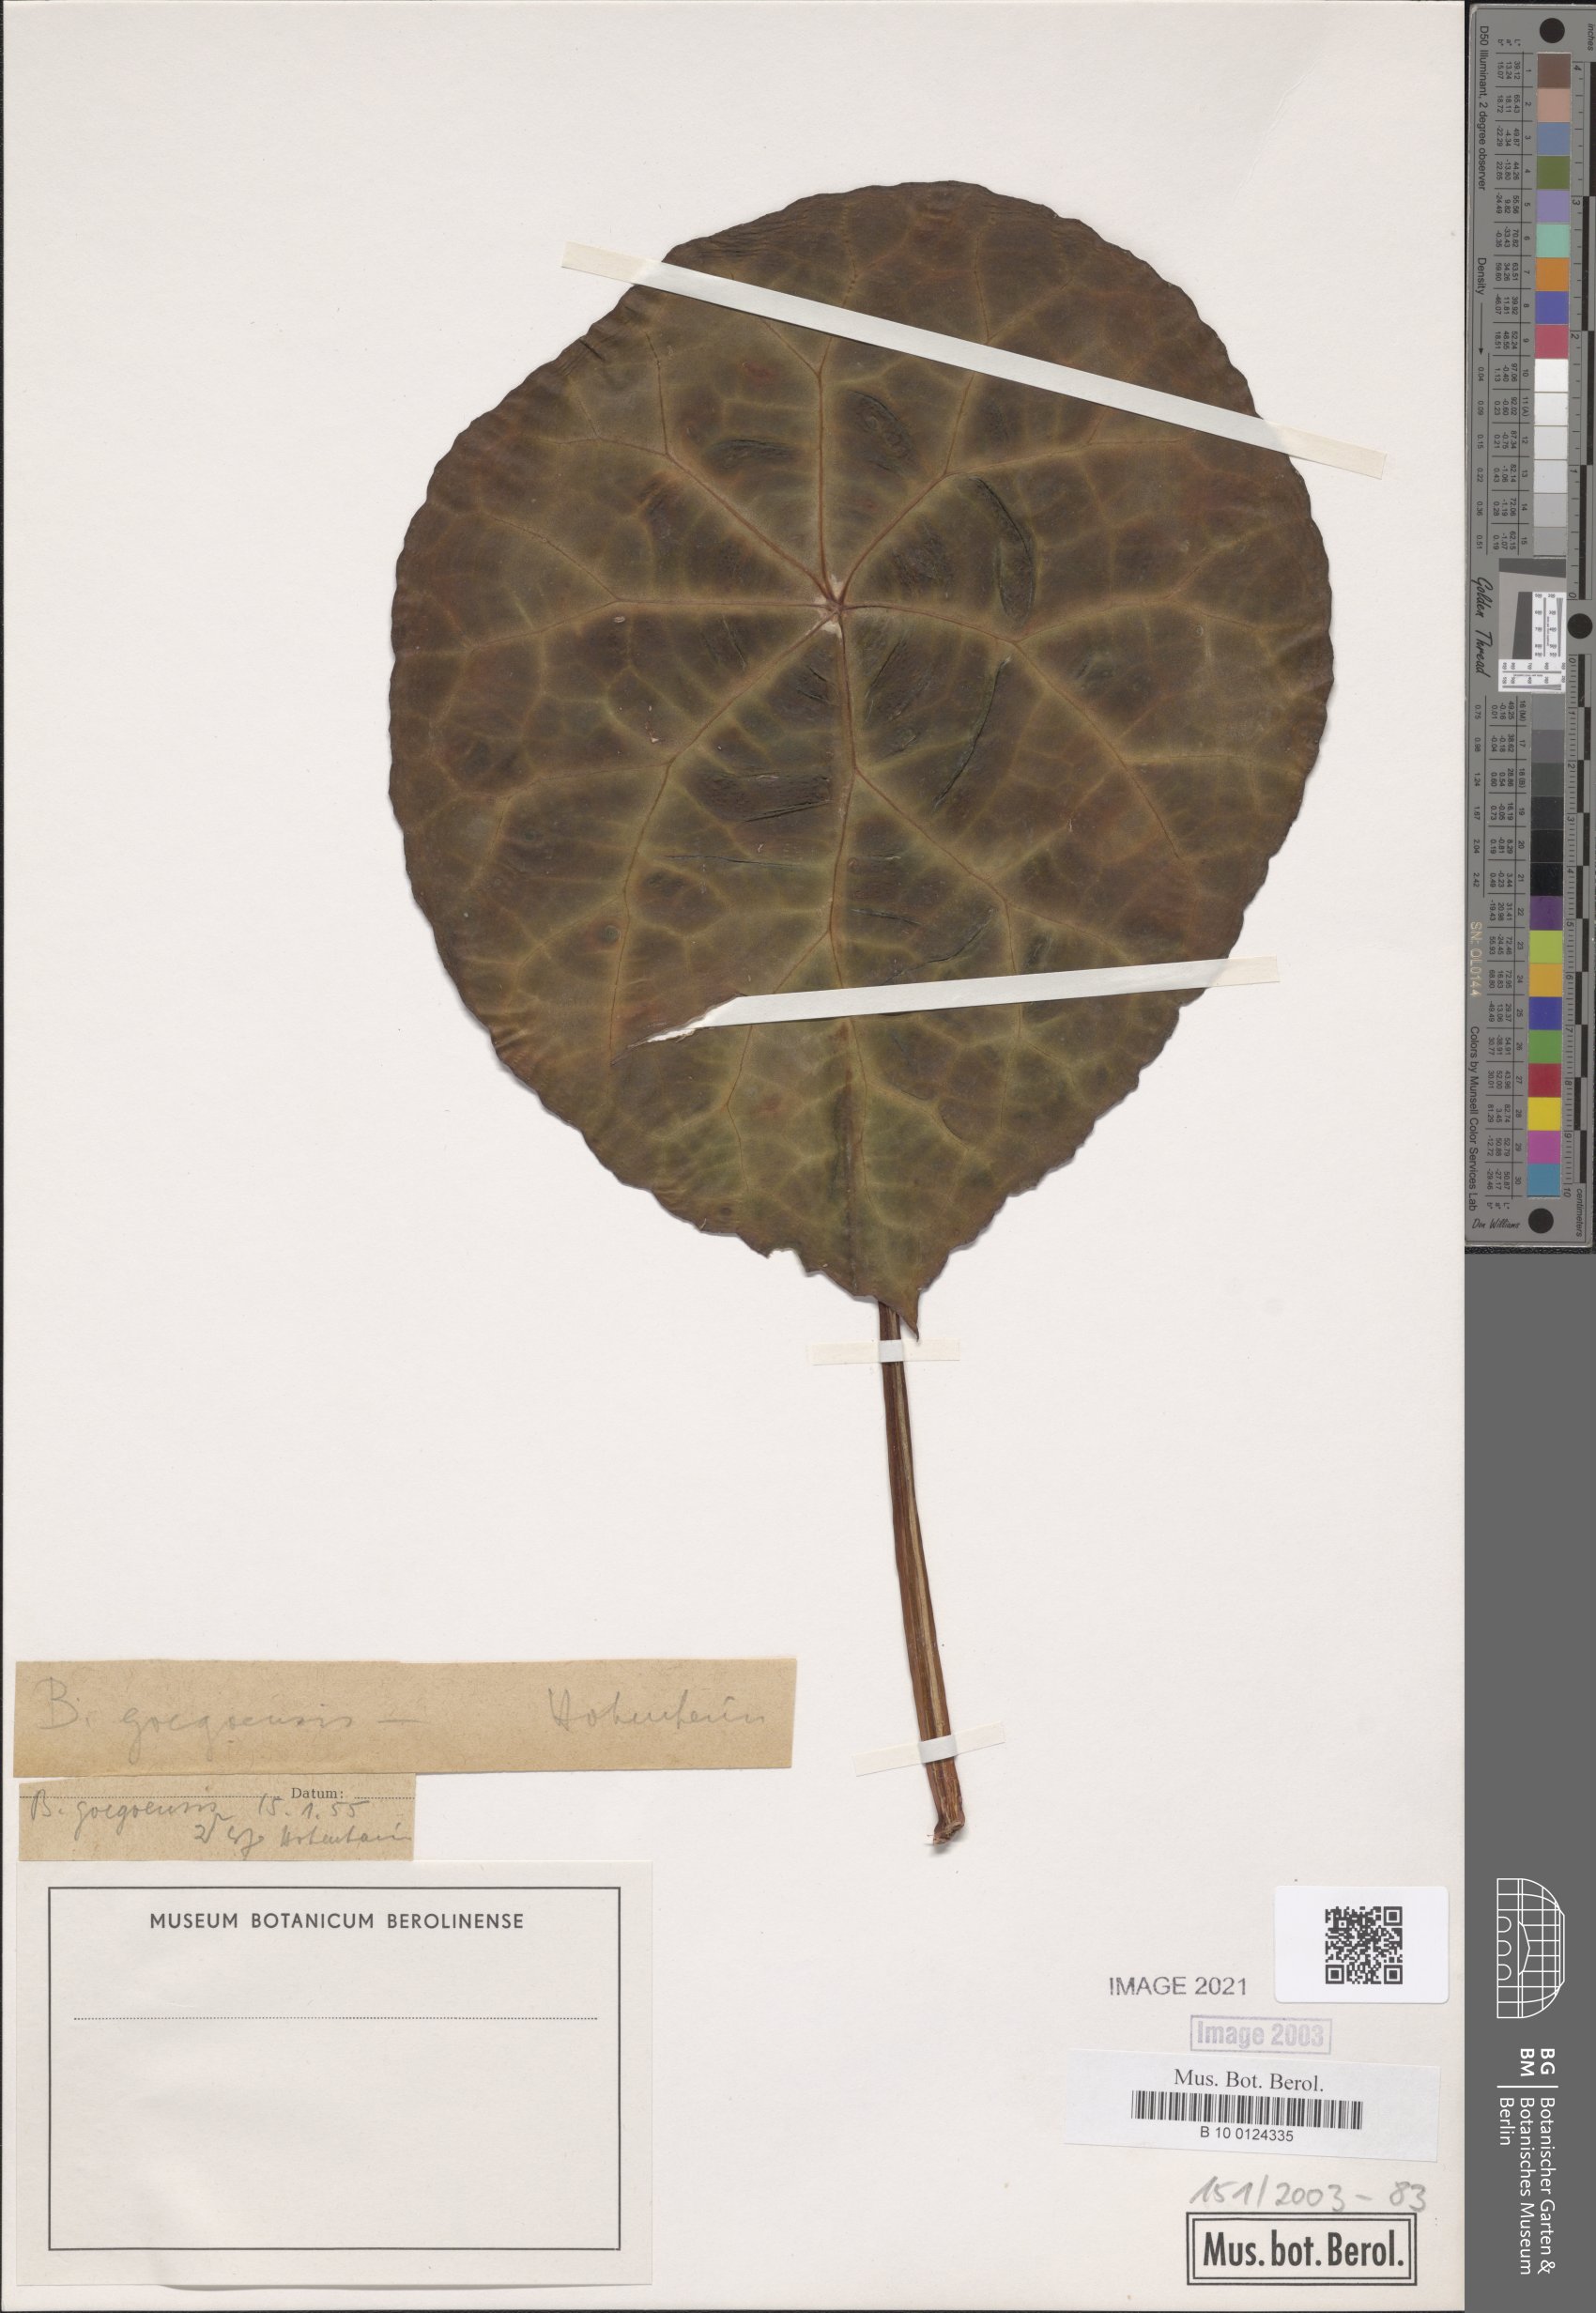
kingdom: Plantae
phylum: Tracheophyta
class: Magnoliopsida
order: Cucurbitales
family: Begoniaceae
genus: Begonia
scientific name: Begonia goegoensis
